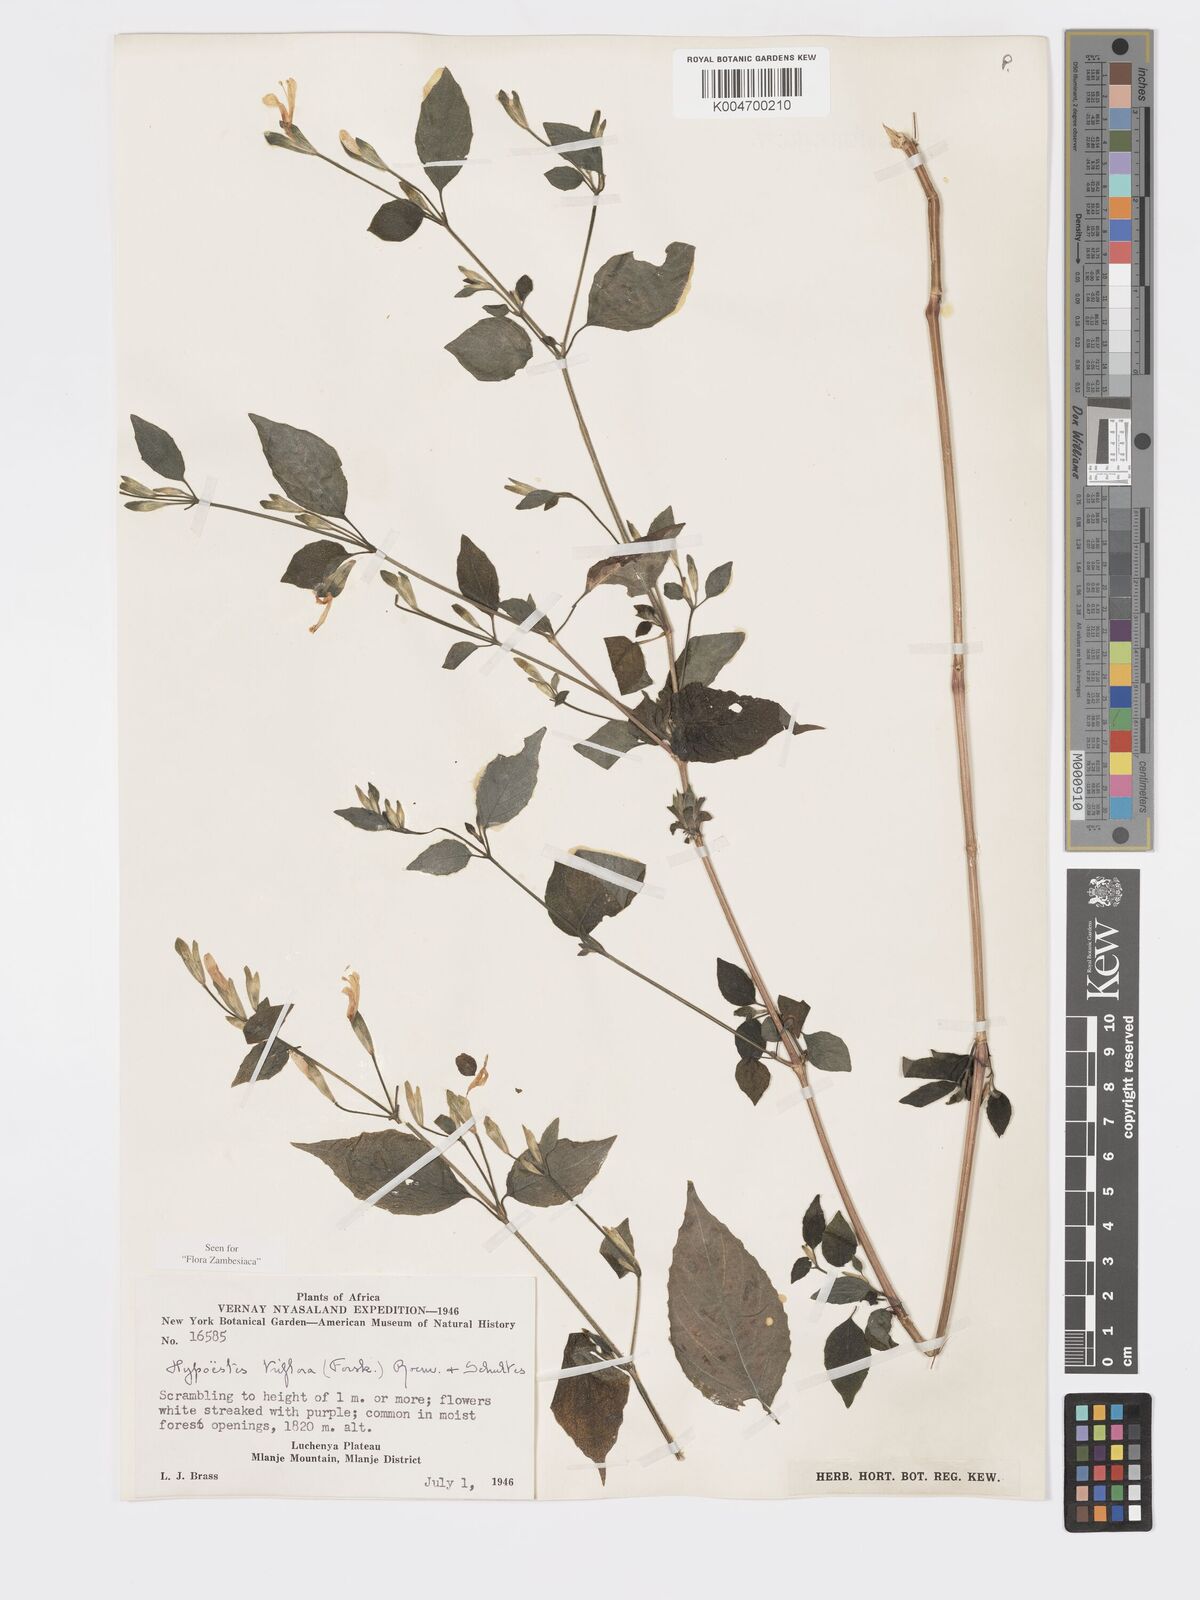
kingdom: Plantae
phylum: Tracheophyta
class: Magnoliopsida
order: Lamiales
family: Acanthaceae
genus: Hypoestes
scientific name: Hypoestes triflora
